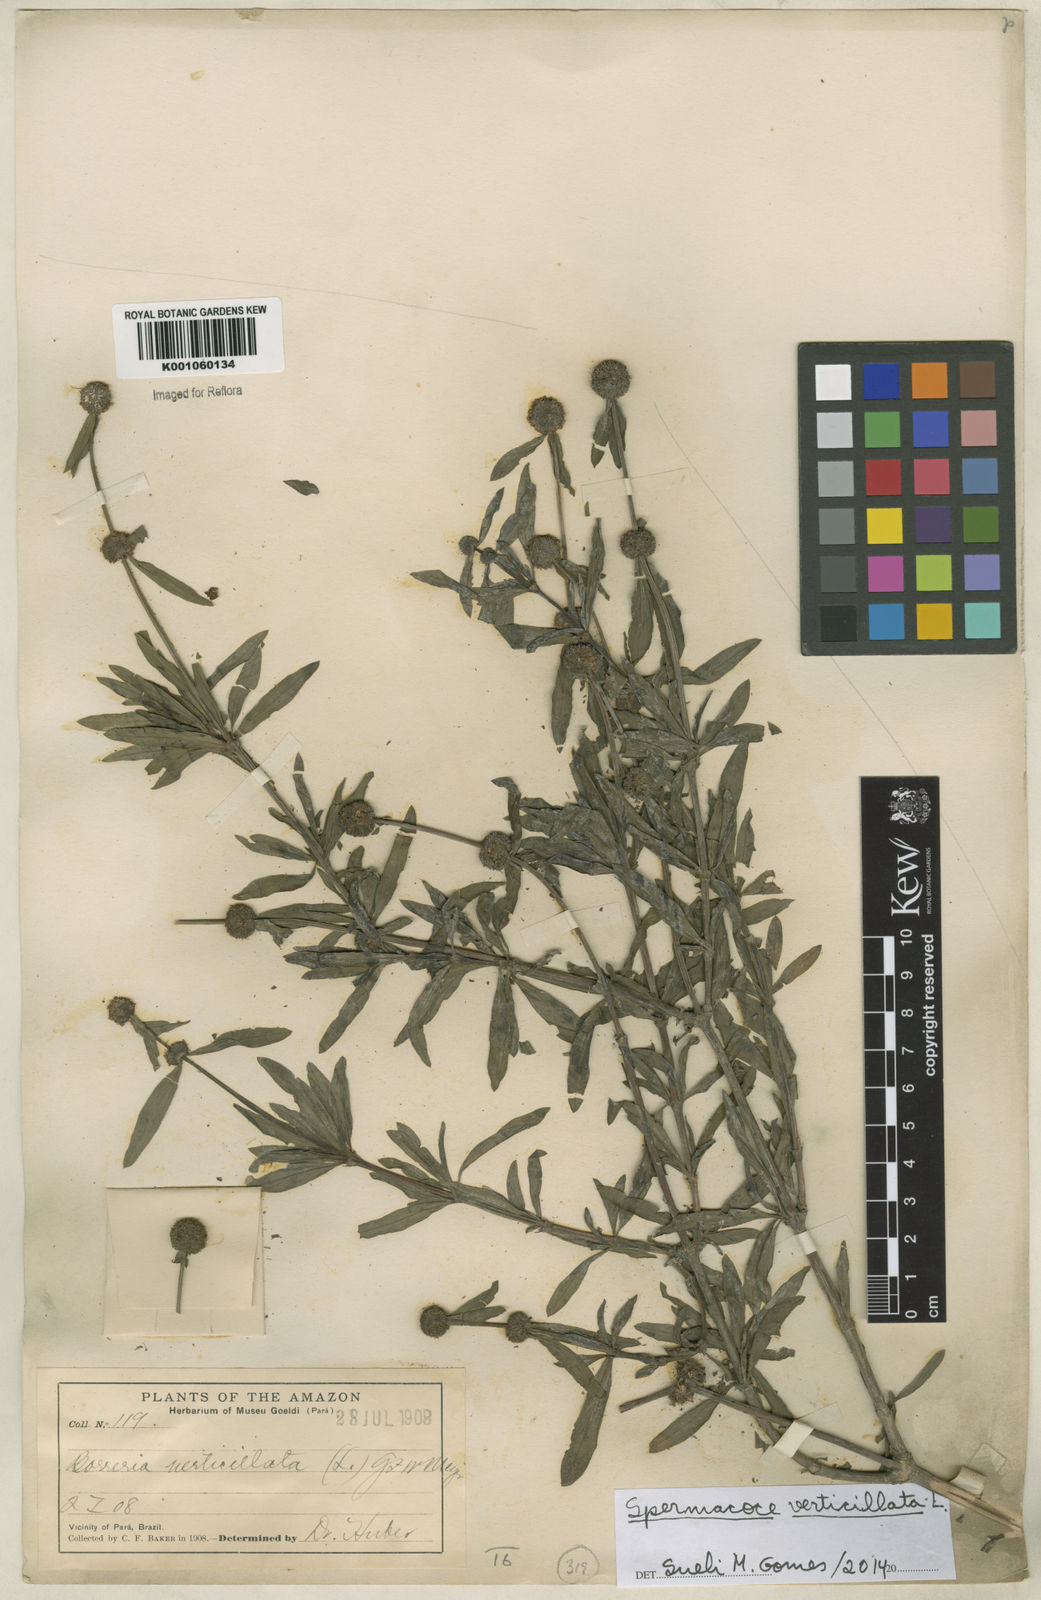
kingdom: Plantae
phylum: Tracheophyta
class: Magnoliopsida
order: Gentianales
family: Rubiaceae
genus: Spermacoce
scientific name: Spermacoce verticillata
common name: Shrubby false buttonweed
